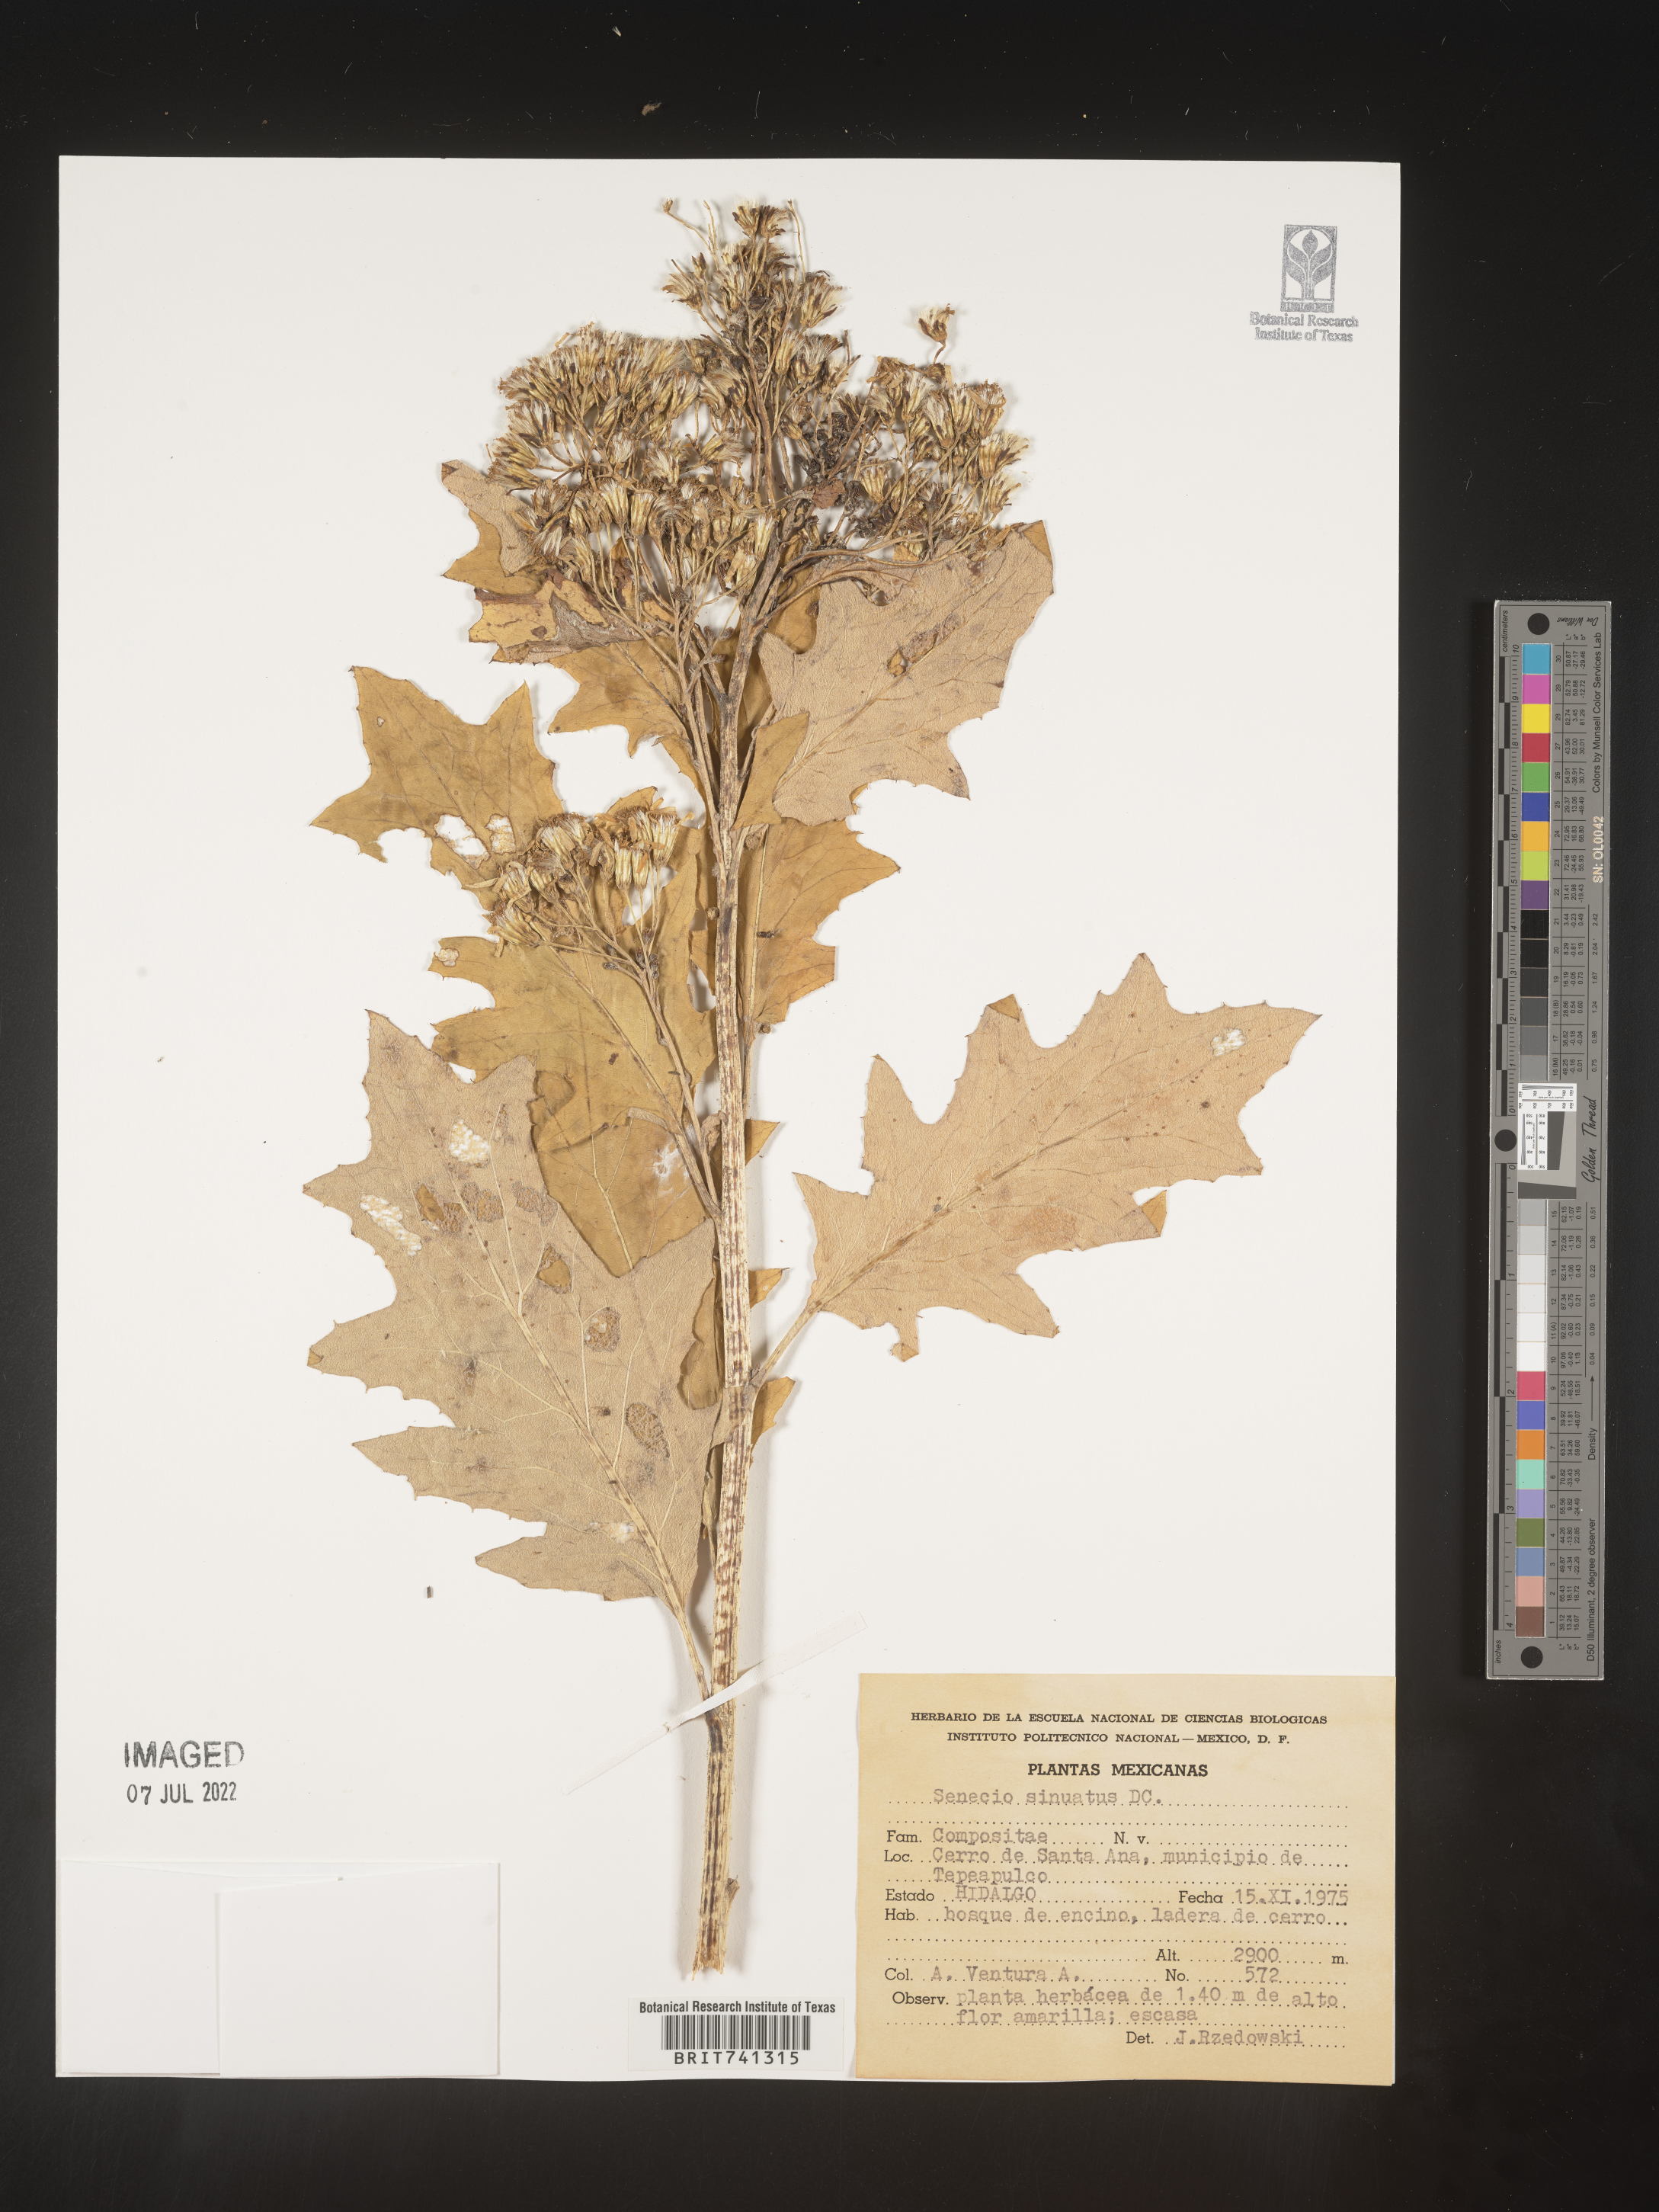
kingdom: Plantae
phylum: Tracheophyta
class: Magnoliopsida
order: Asterales
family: Asteraceae
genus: Senecio
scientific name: Senecio
